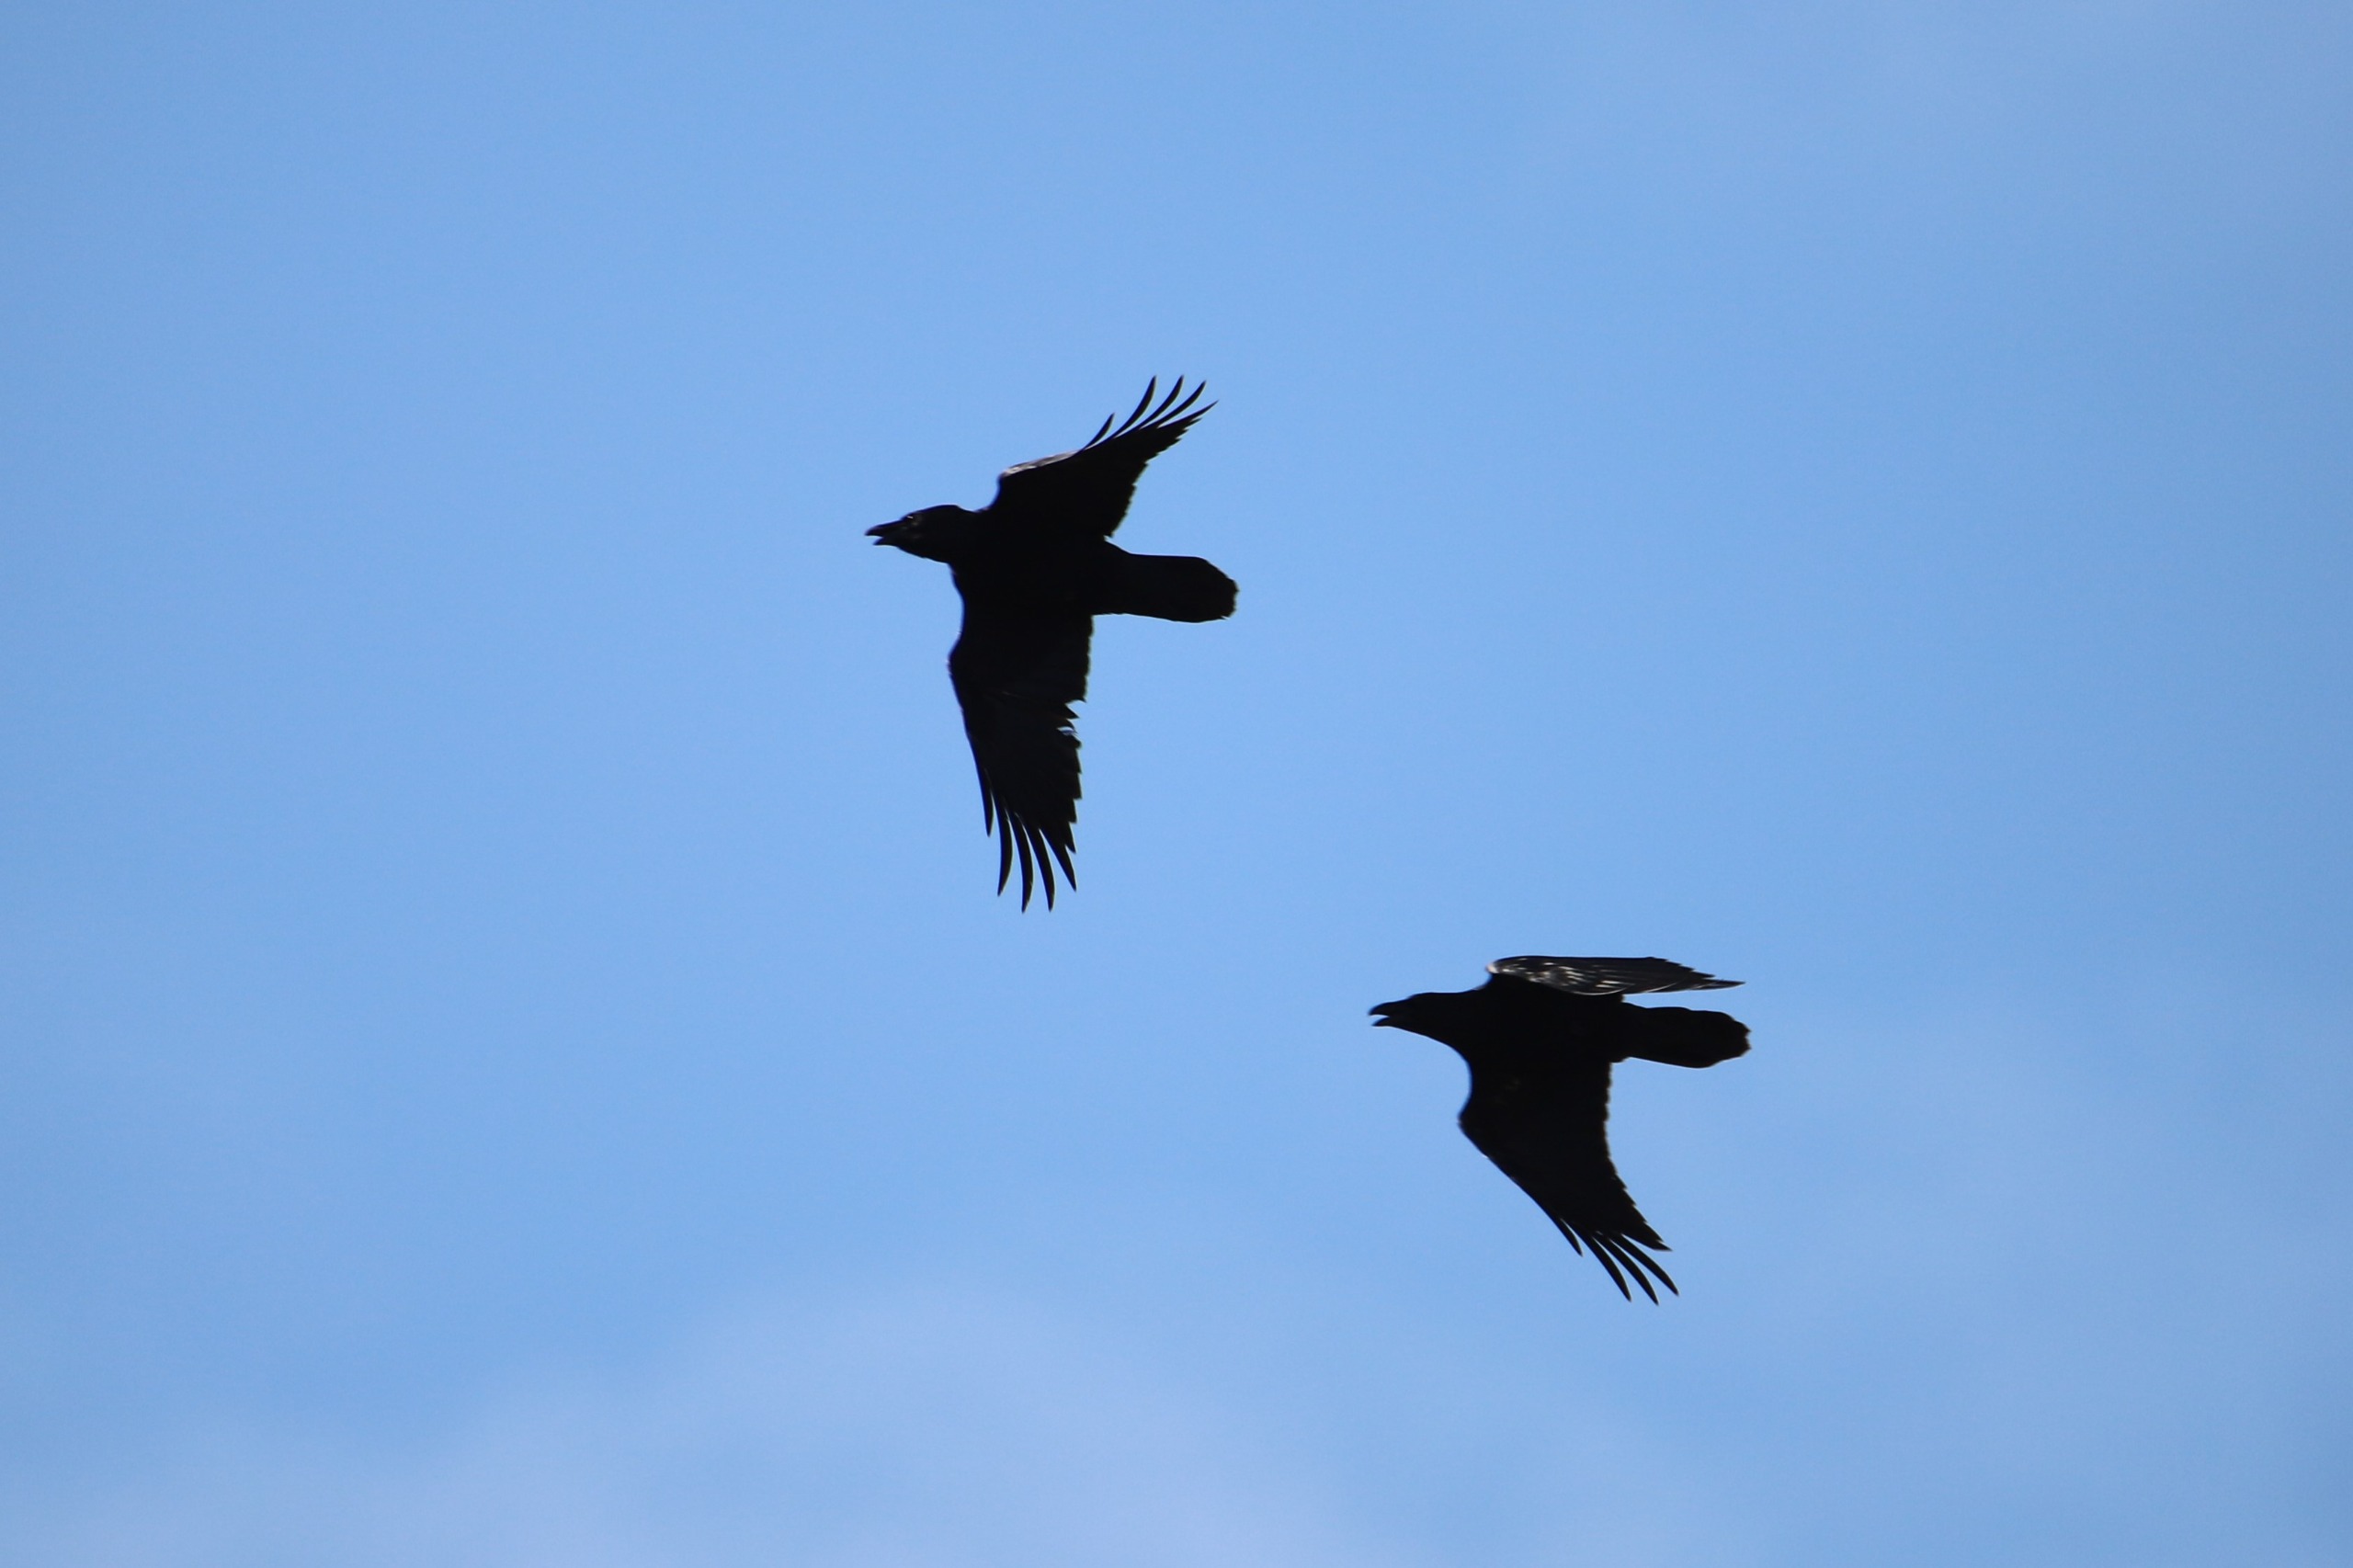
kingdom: Animalia
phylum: Chordata
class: Aves
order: Passeriformes
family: Corvidae
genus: Corvus
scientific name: Corvus corax
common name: Ravn
